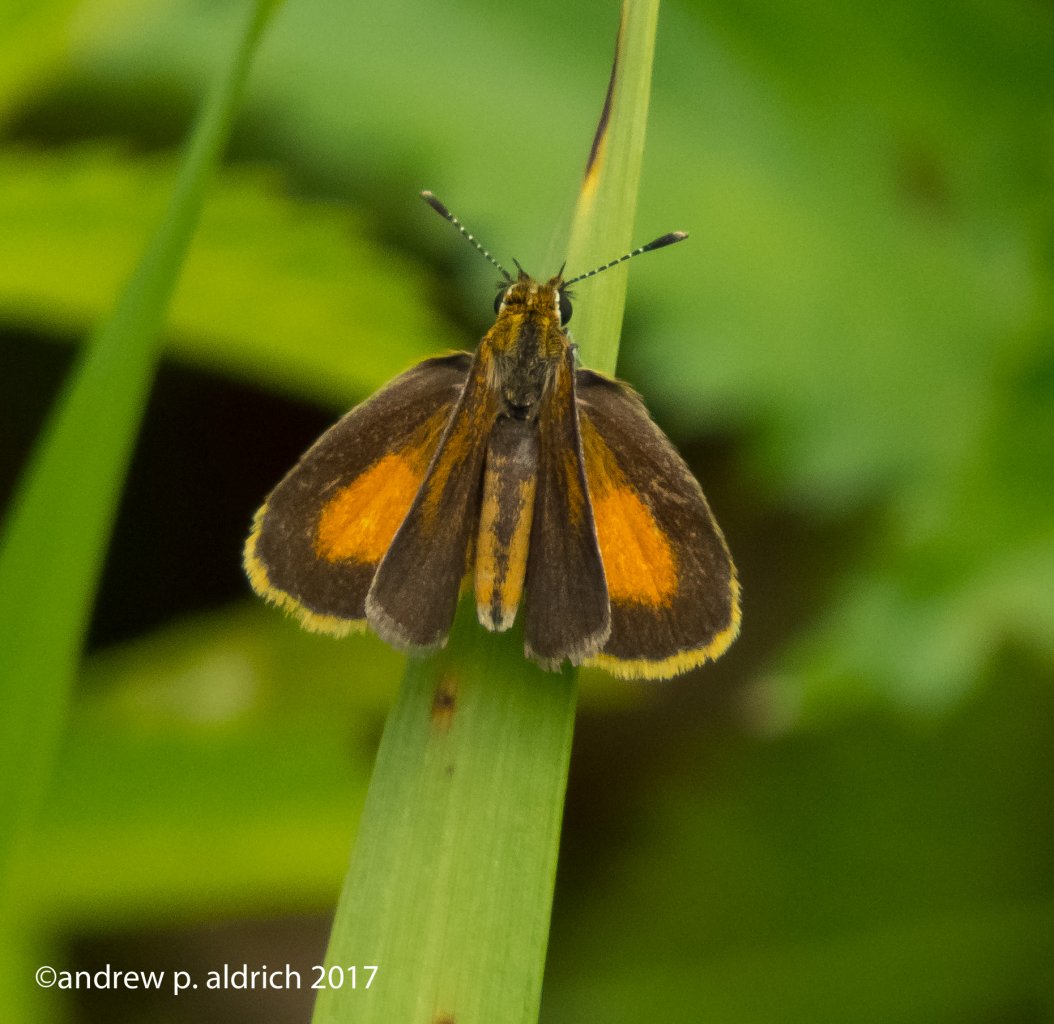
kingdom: Animalia
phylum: Arthropoda
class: Insecta
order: Lepidoptera
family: Hesperiidae
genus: Ancyloxypha
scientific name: Ancyloxypha numitor
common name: Least Skipper
